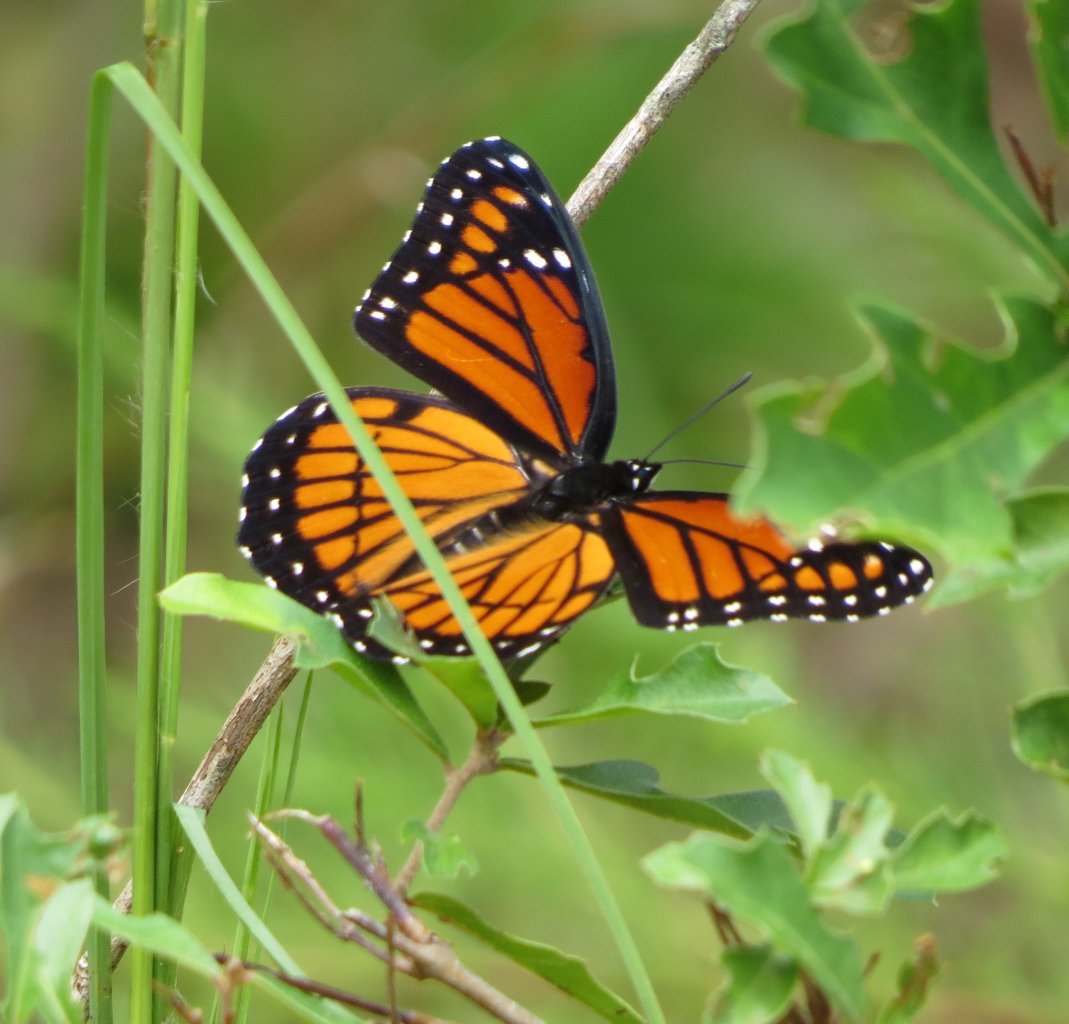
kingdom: Animalia
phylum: Arthropoda
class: Insecta
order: Lepidoptera
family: Nymphalidae
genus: Limenitis
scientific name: Limenitis archippus
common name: Viceroy
